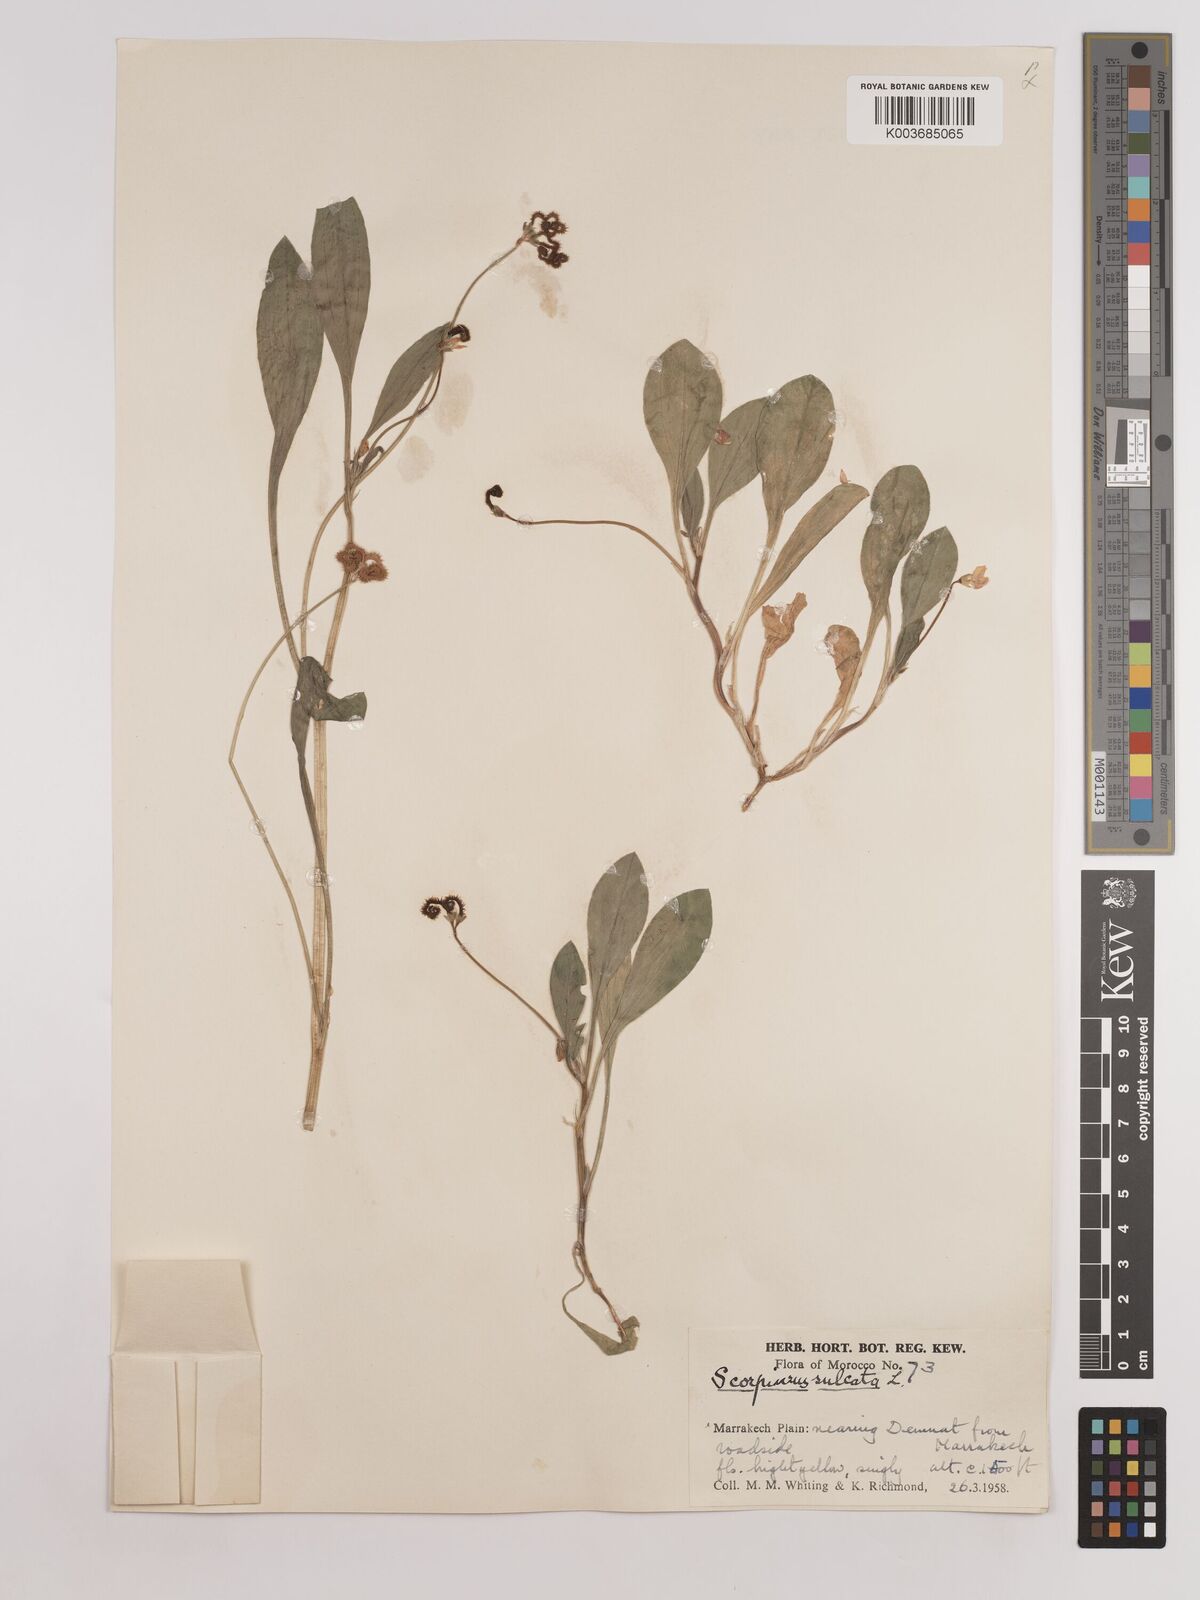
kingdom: Plantae
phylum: Tracheophyta
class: Magnoliopsida
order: Fabales
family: Fabaceae
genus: Scorpiurus
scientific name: Scorpiurus muricatus
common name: Caterpillar-plant
